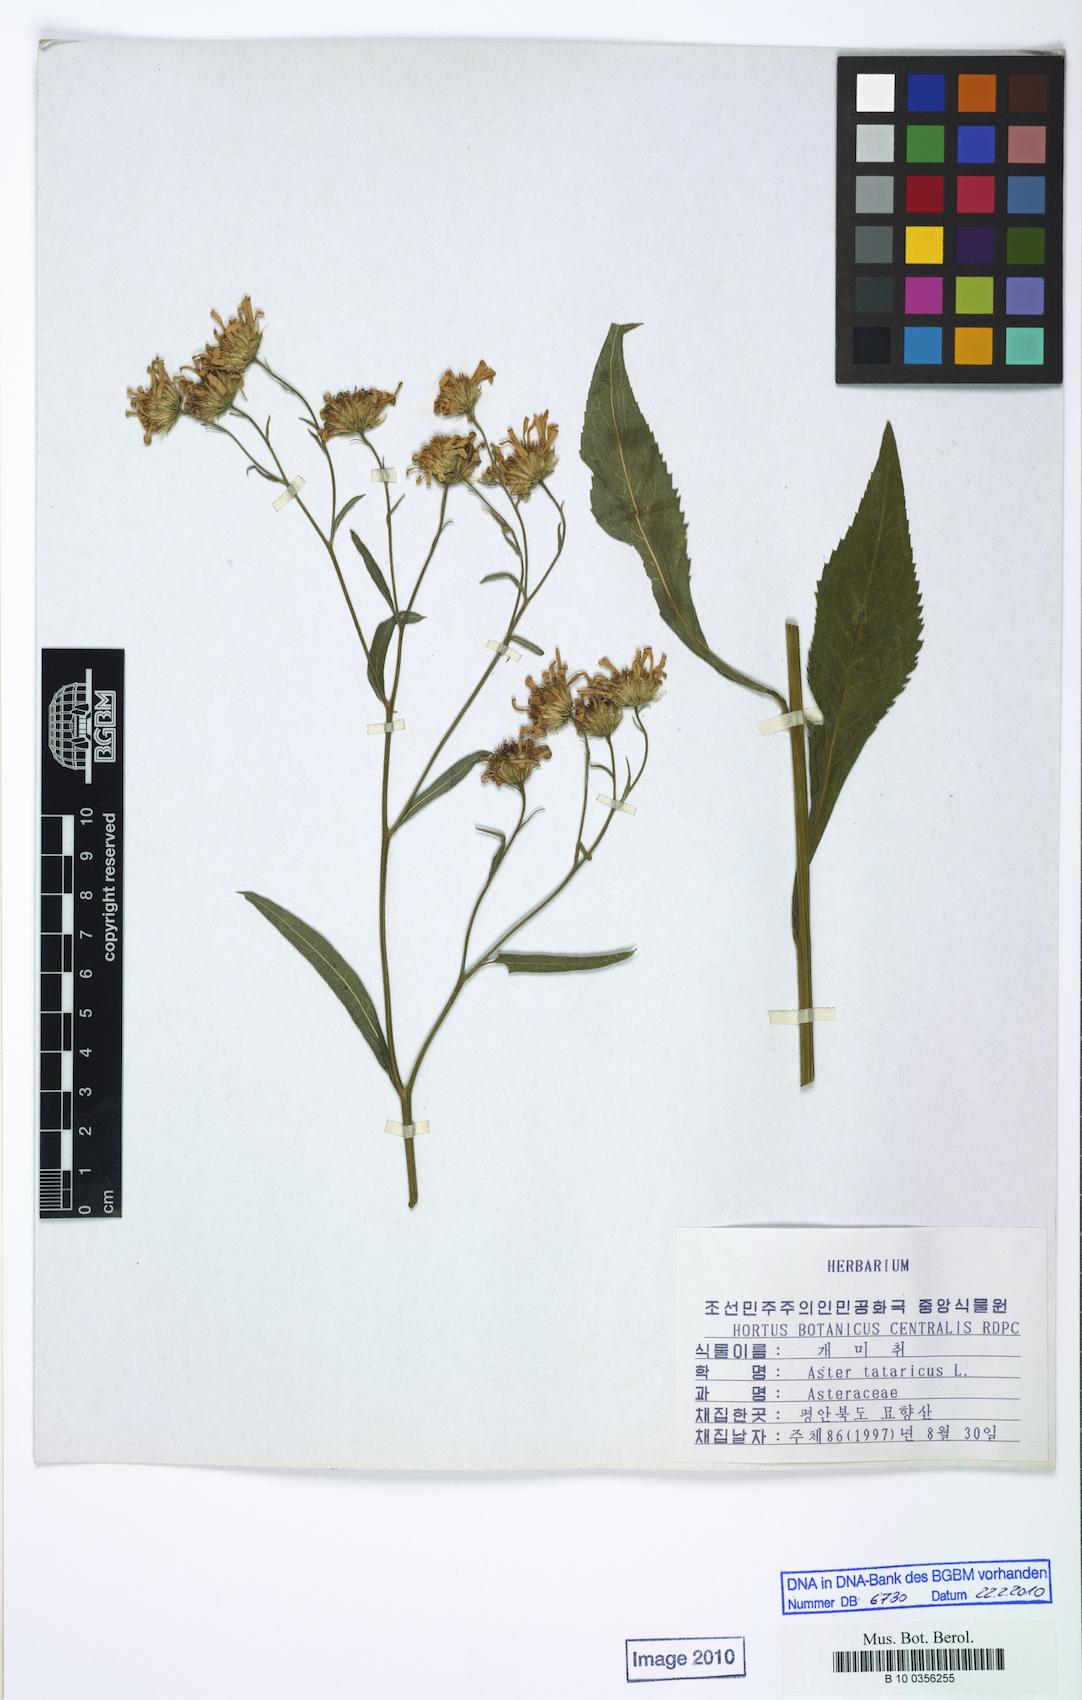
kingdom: Plantae
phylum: Tracheophyta
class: Magnoliopsida
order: Asterales
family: Asteraceae
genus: Aster
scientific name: Aster tataricus
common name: Tatarian aster
